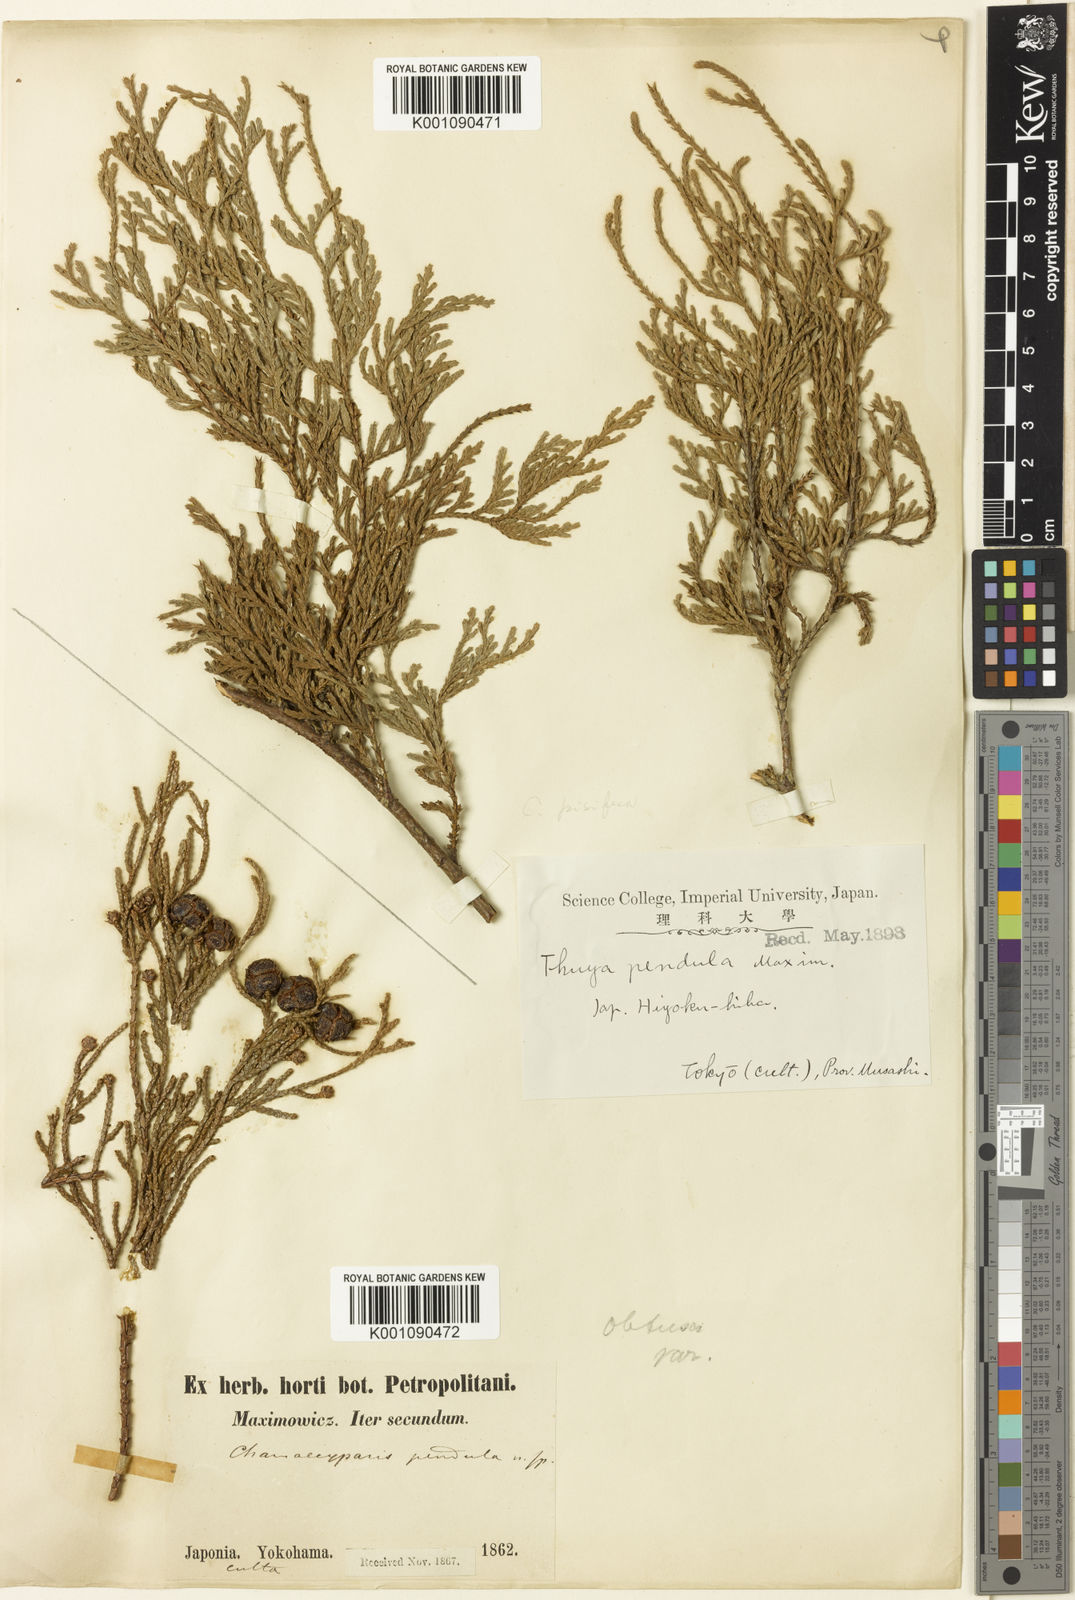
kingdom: Plantae
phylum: Tracheophyta
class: Pinopsida
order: Pinales
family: Cupressaceae
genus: Chamaecyparis
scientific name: Chamaecyparis obtusa
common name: Hinoki false cypress
